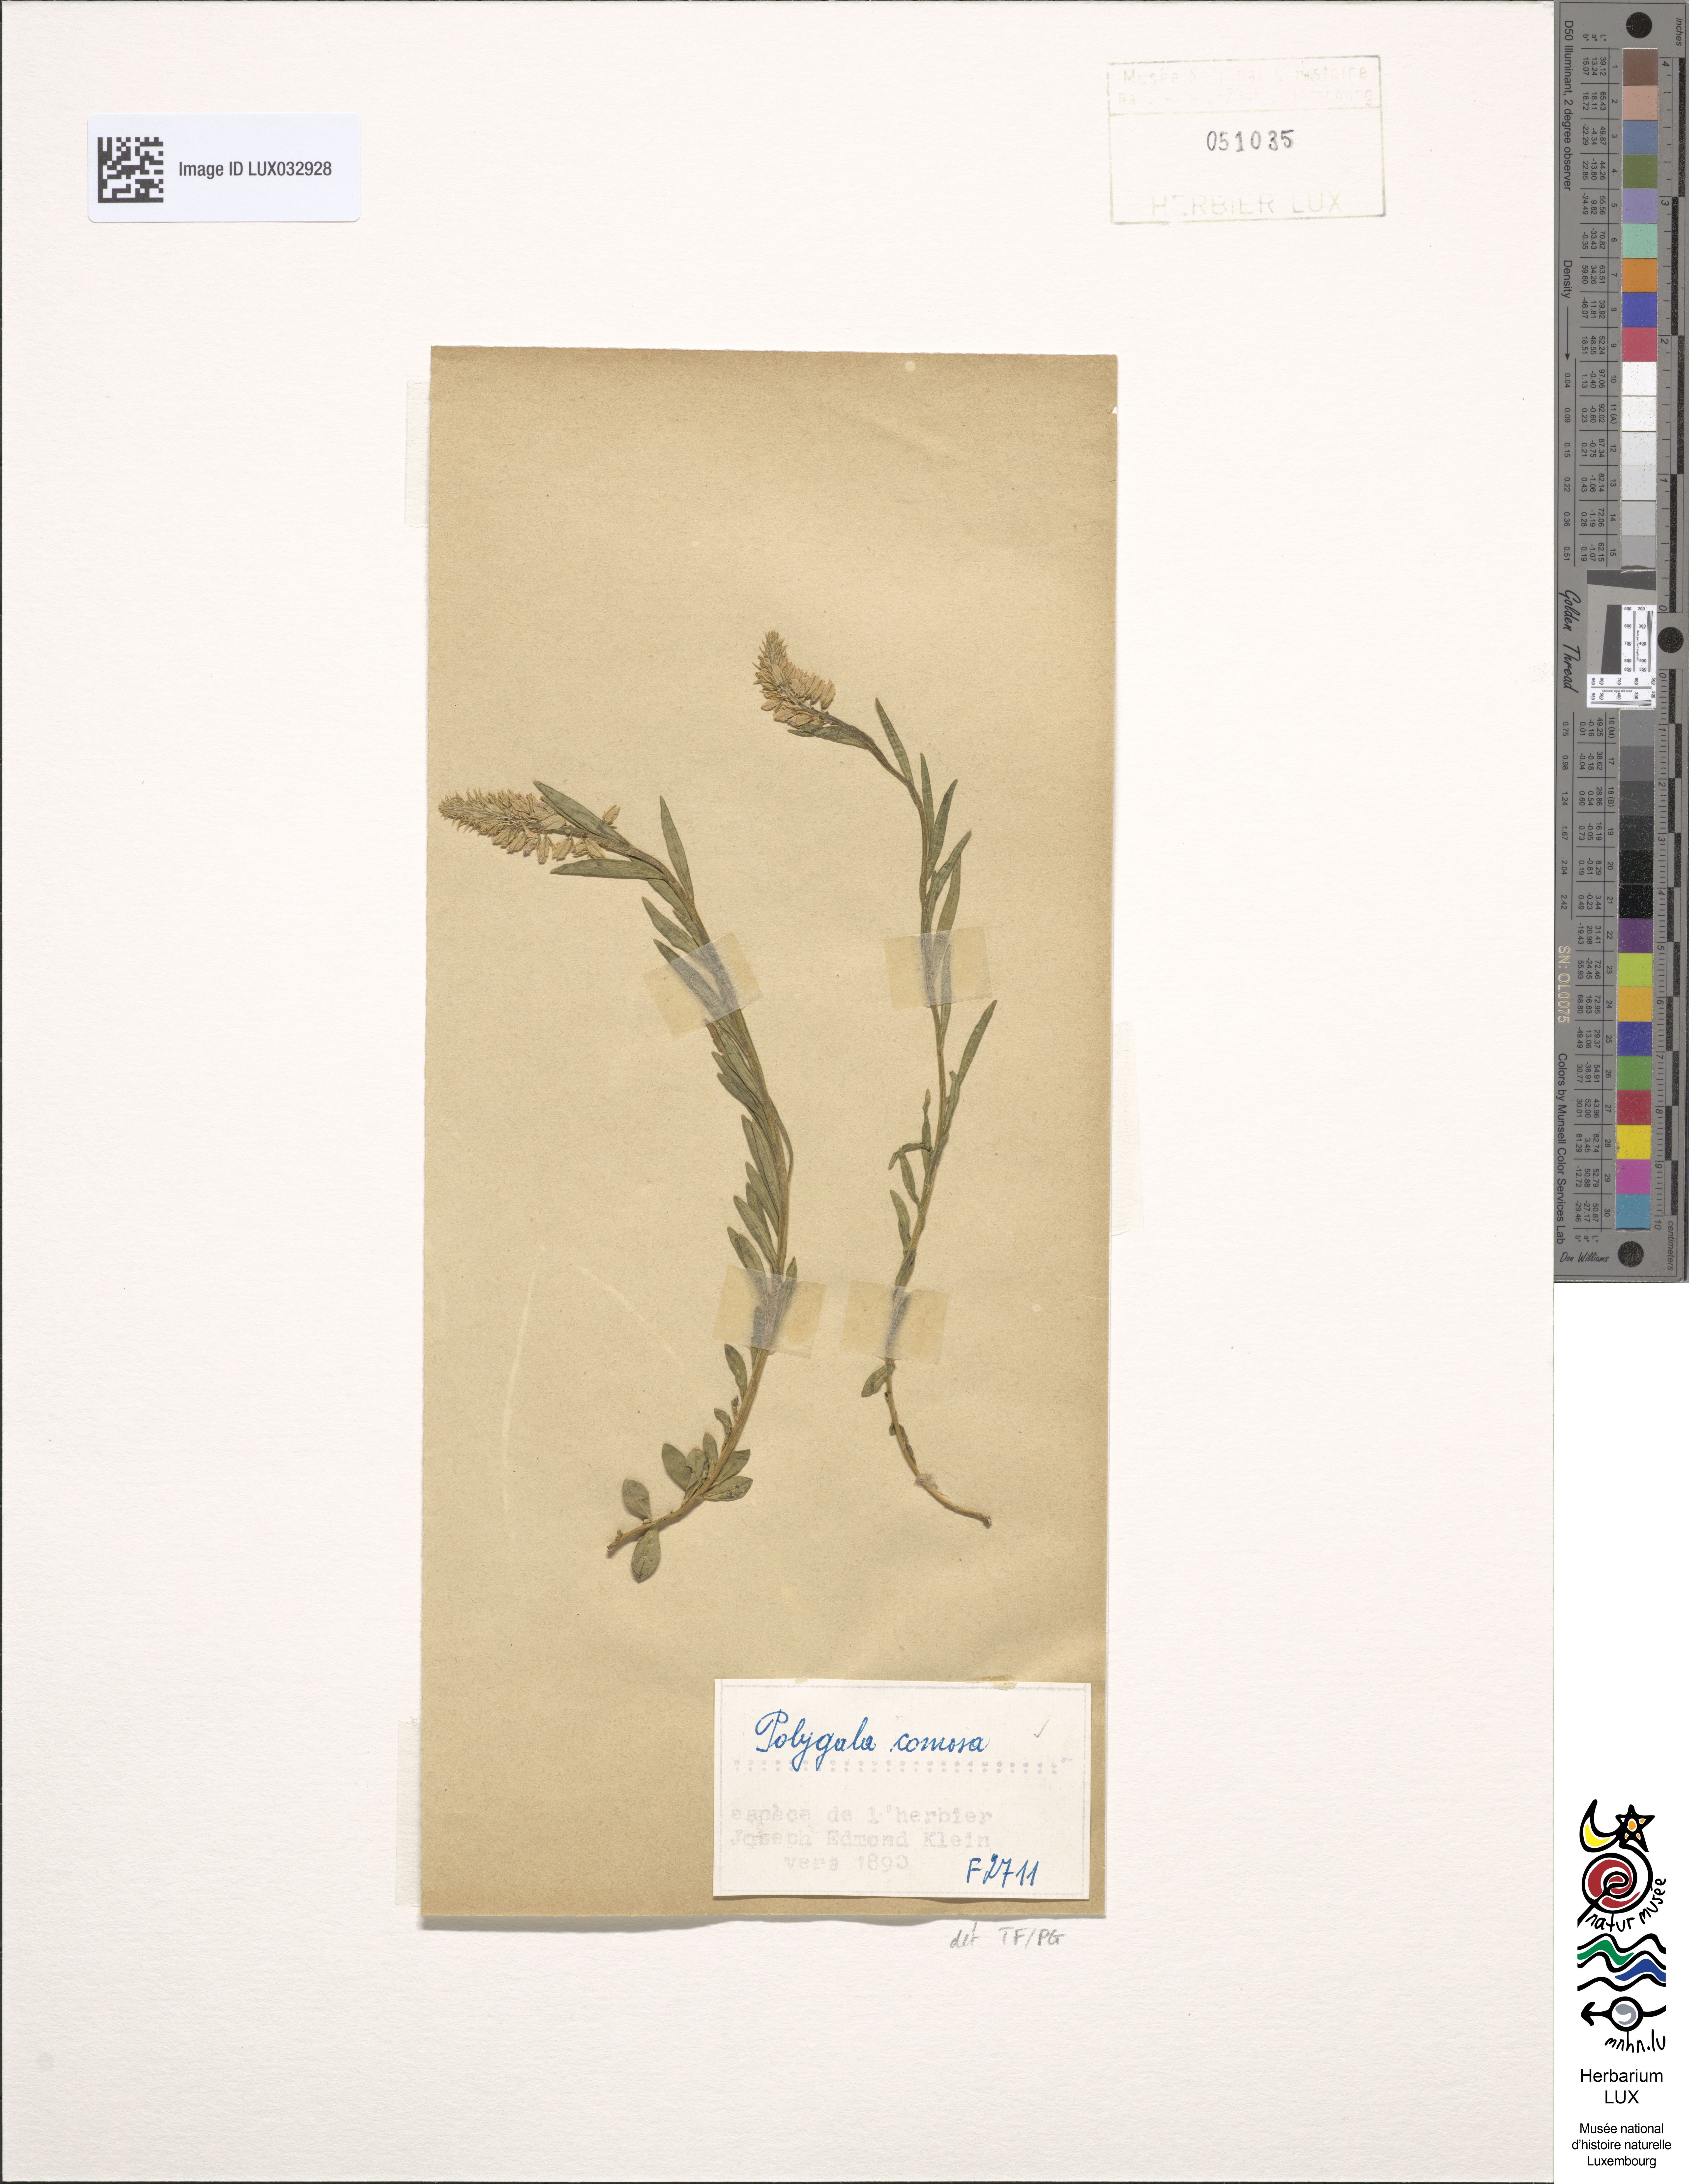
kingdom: Plantae
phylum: Tracheophyta
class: Magnoliopsida
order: Fabales
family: Polygalaceae
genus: Polygala
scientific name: Polygala comosa
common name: Tufted milkwort
